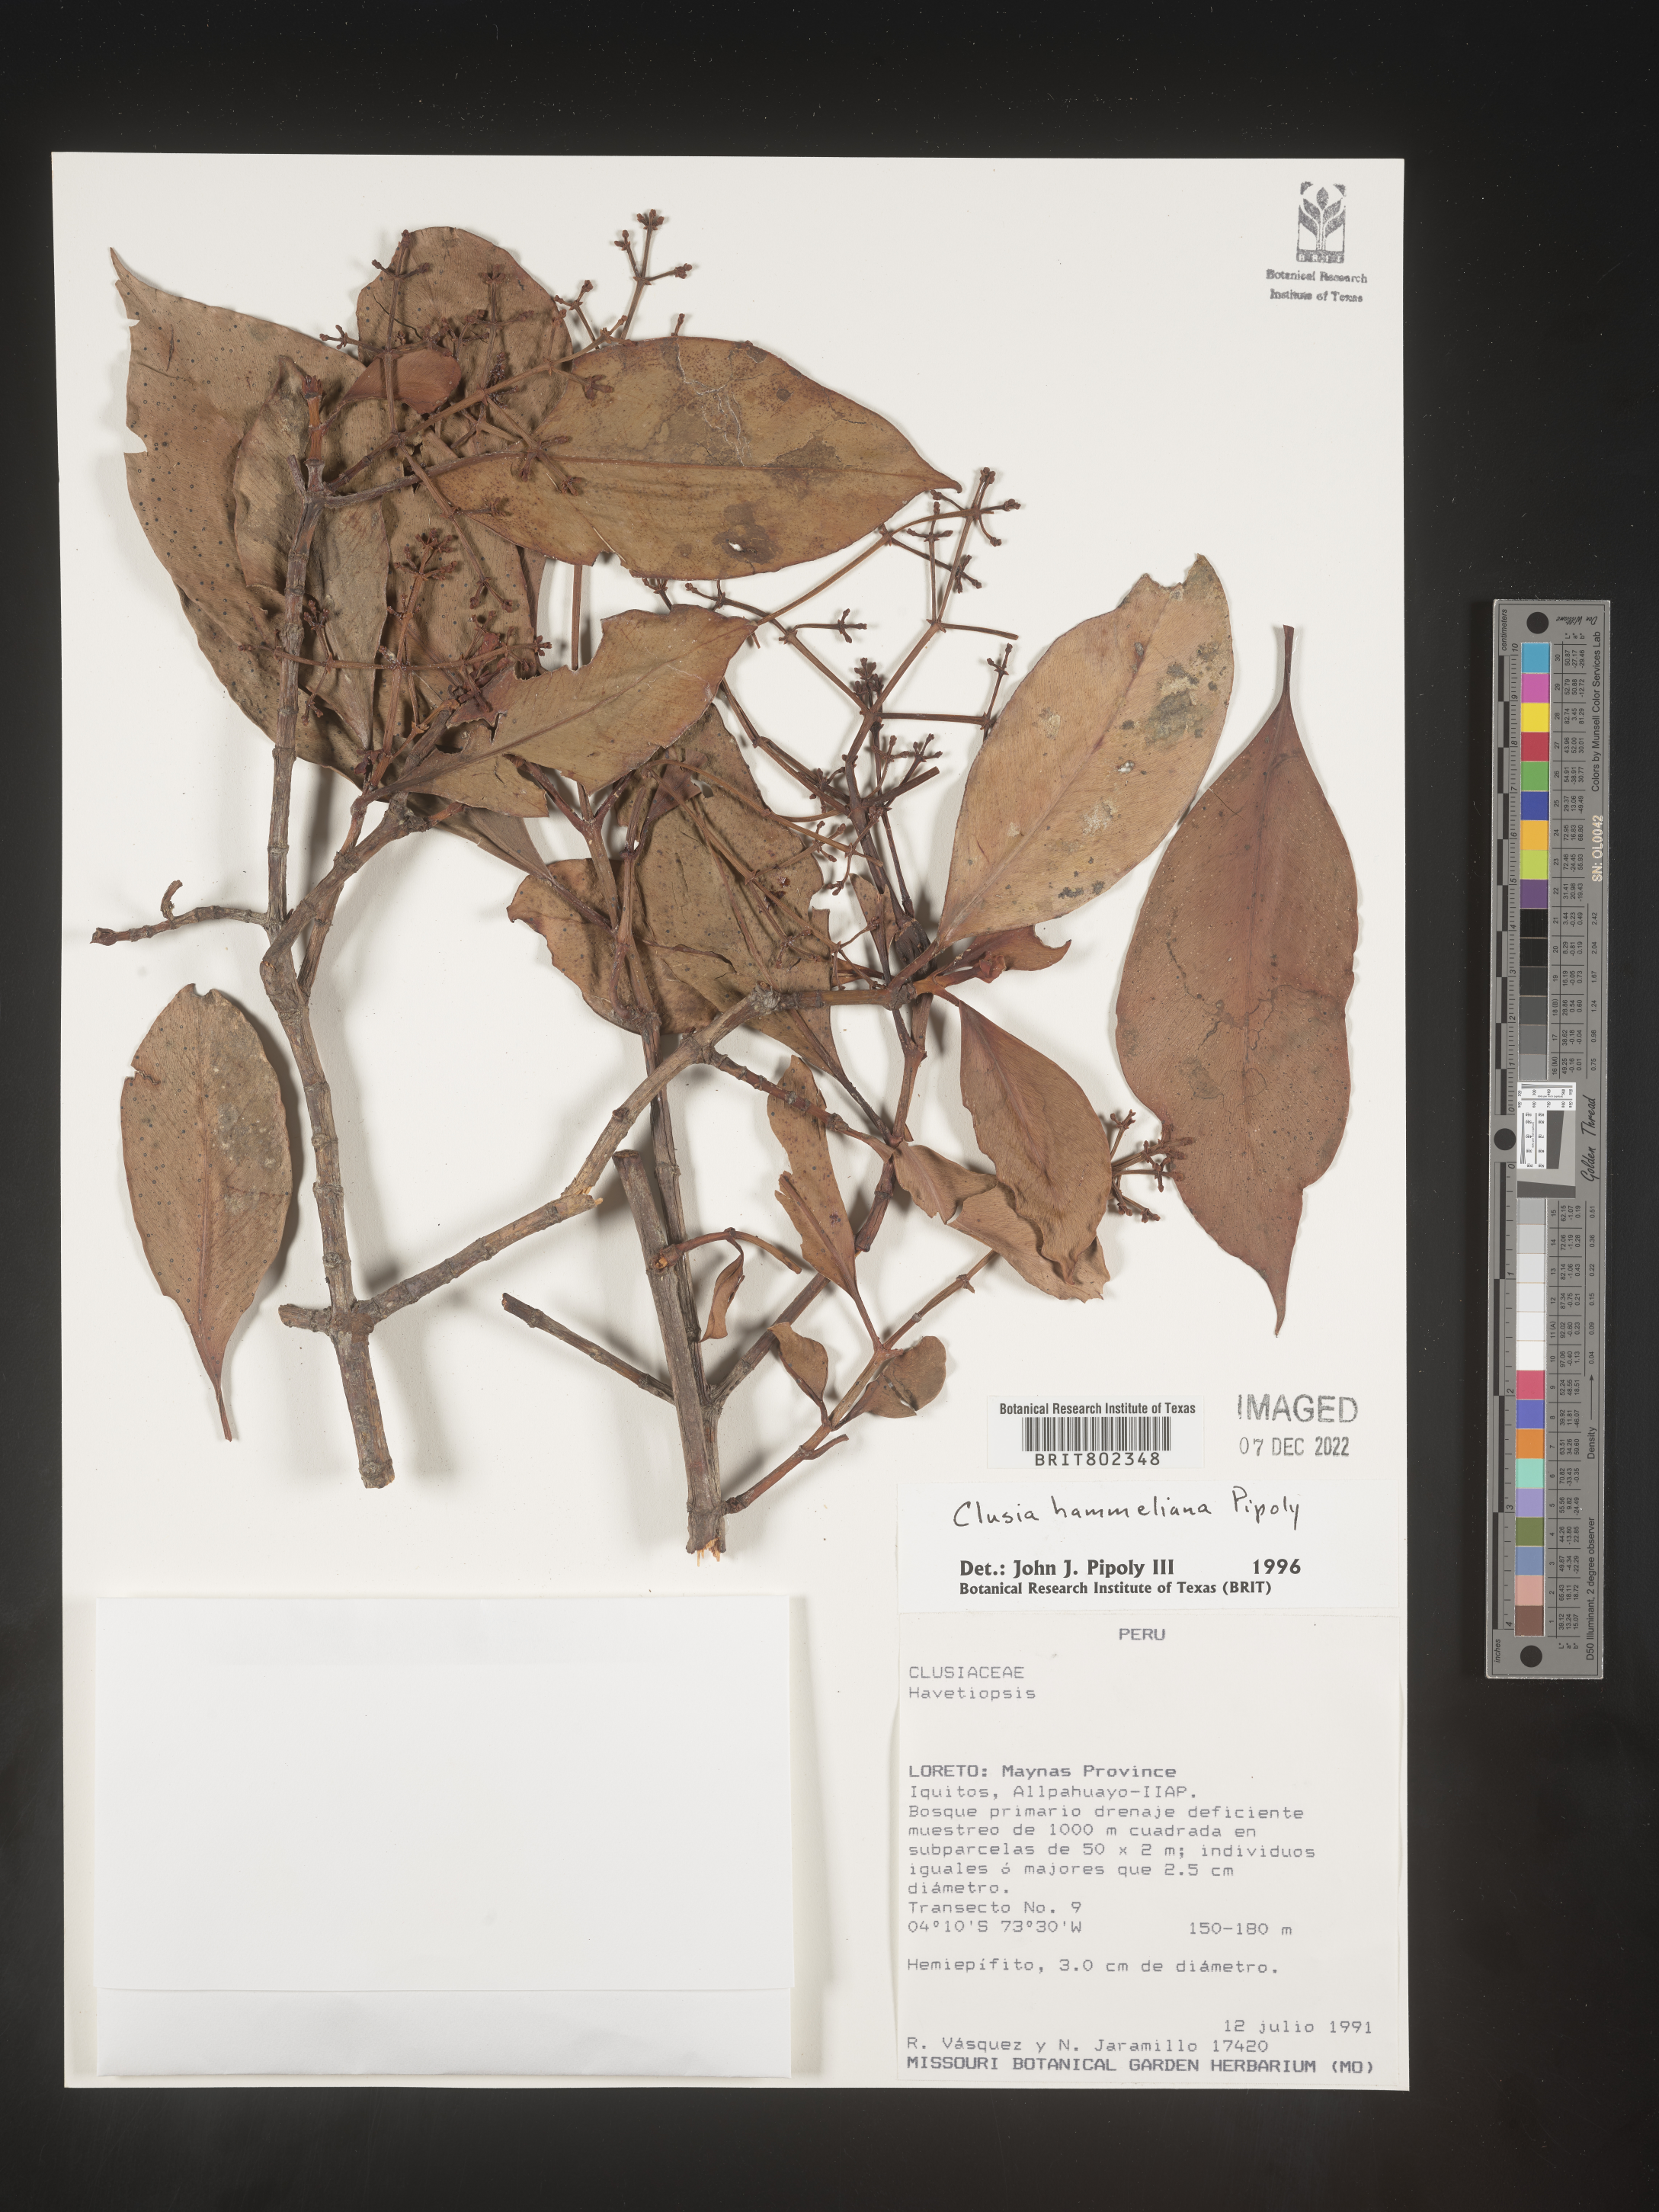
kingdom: Plantae
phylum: Tracheophyta
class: Magnoliopsida
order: Malpighiales
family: Clusiaceae
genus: Clusia
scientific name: Clusia hammeliana
